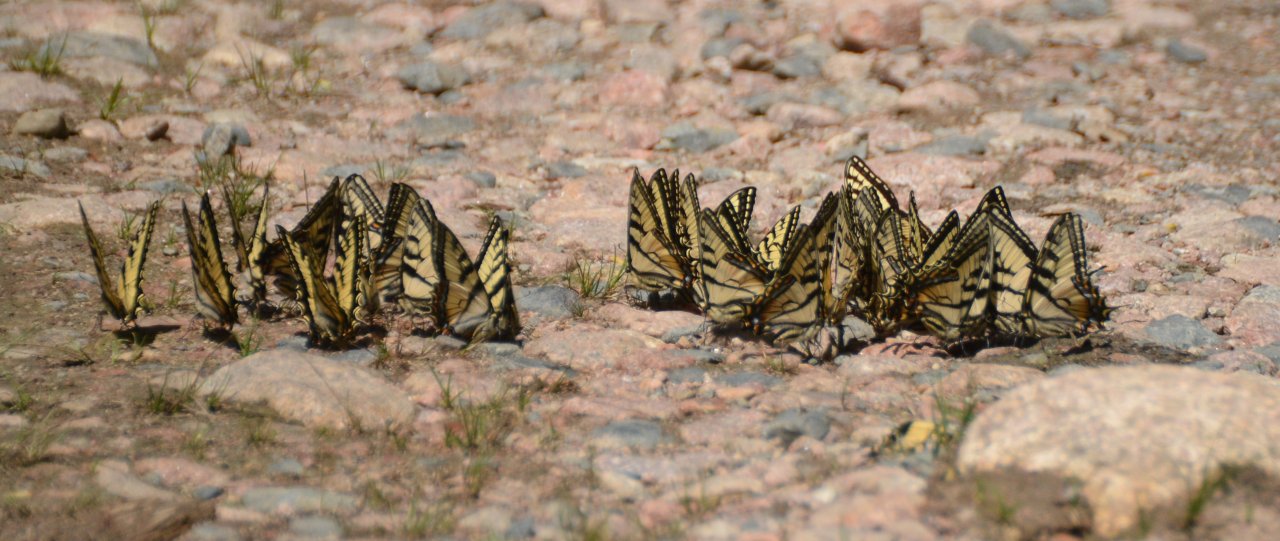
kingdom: Animalia
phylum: Arthropoda
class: Insecta
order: Lepidoptera
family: Papilionidae
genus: Pterourus
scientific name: Pterourus canadensis
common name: Canadian Tiger Swallowtail
